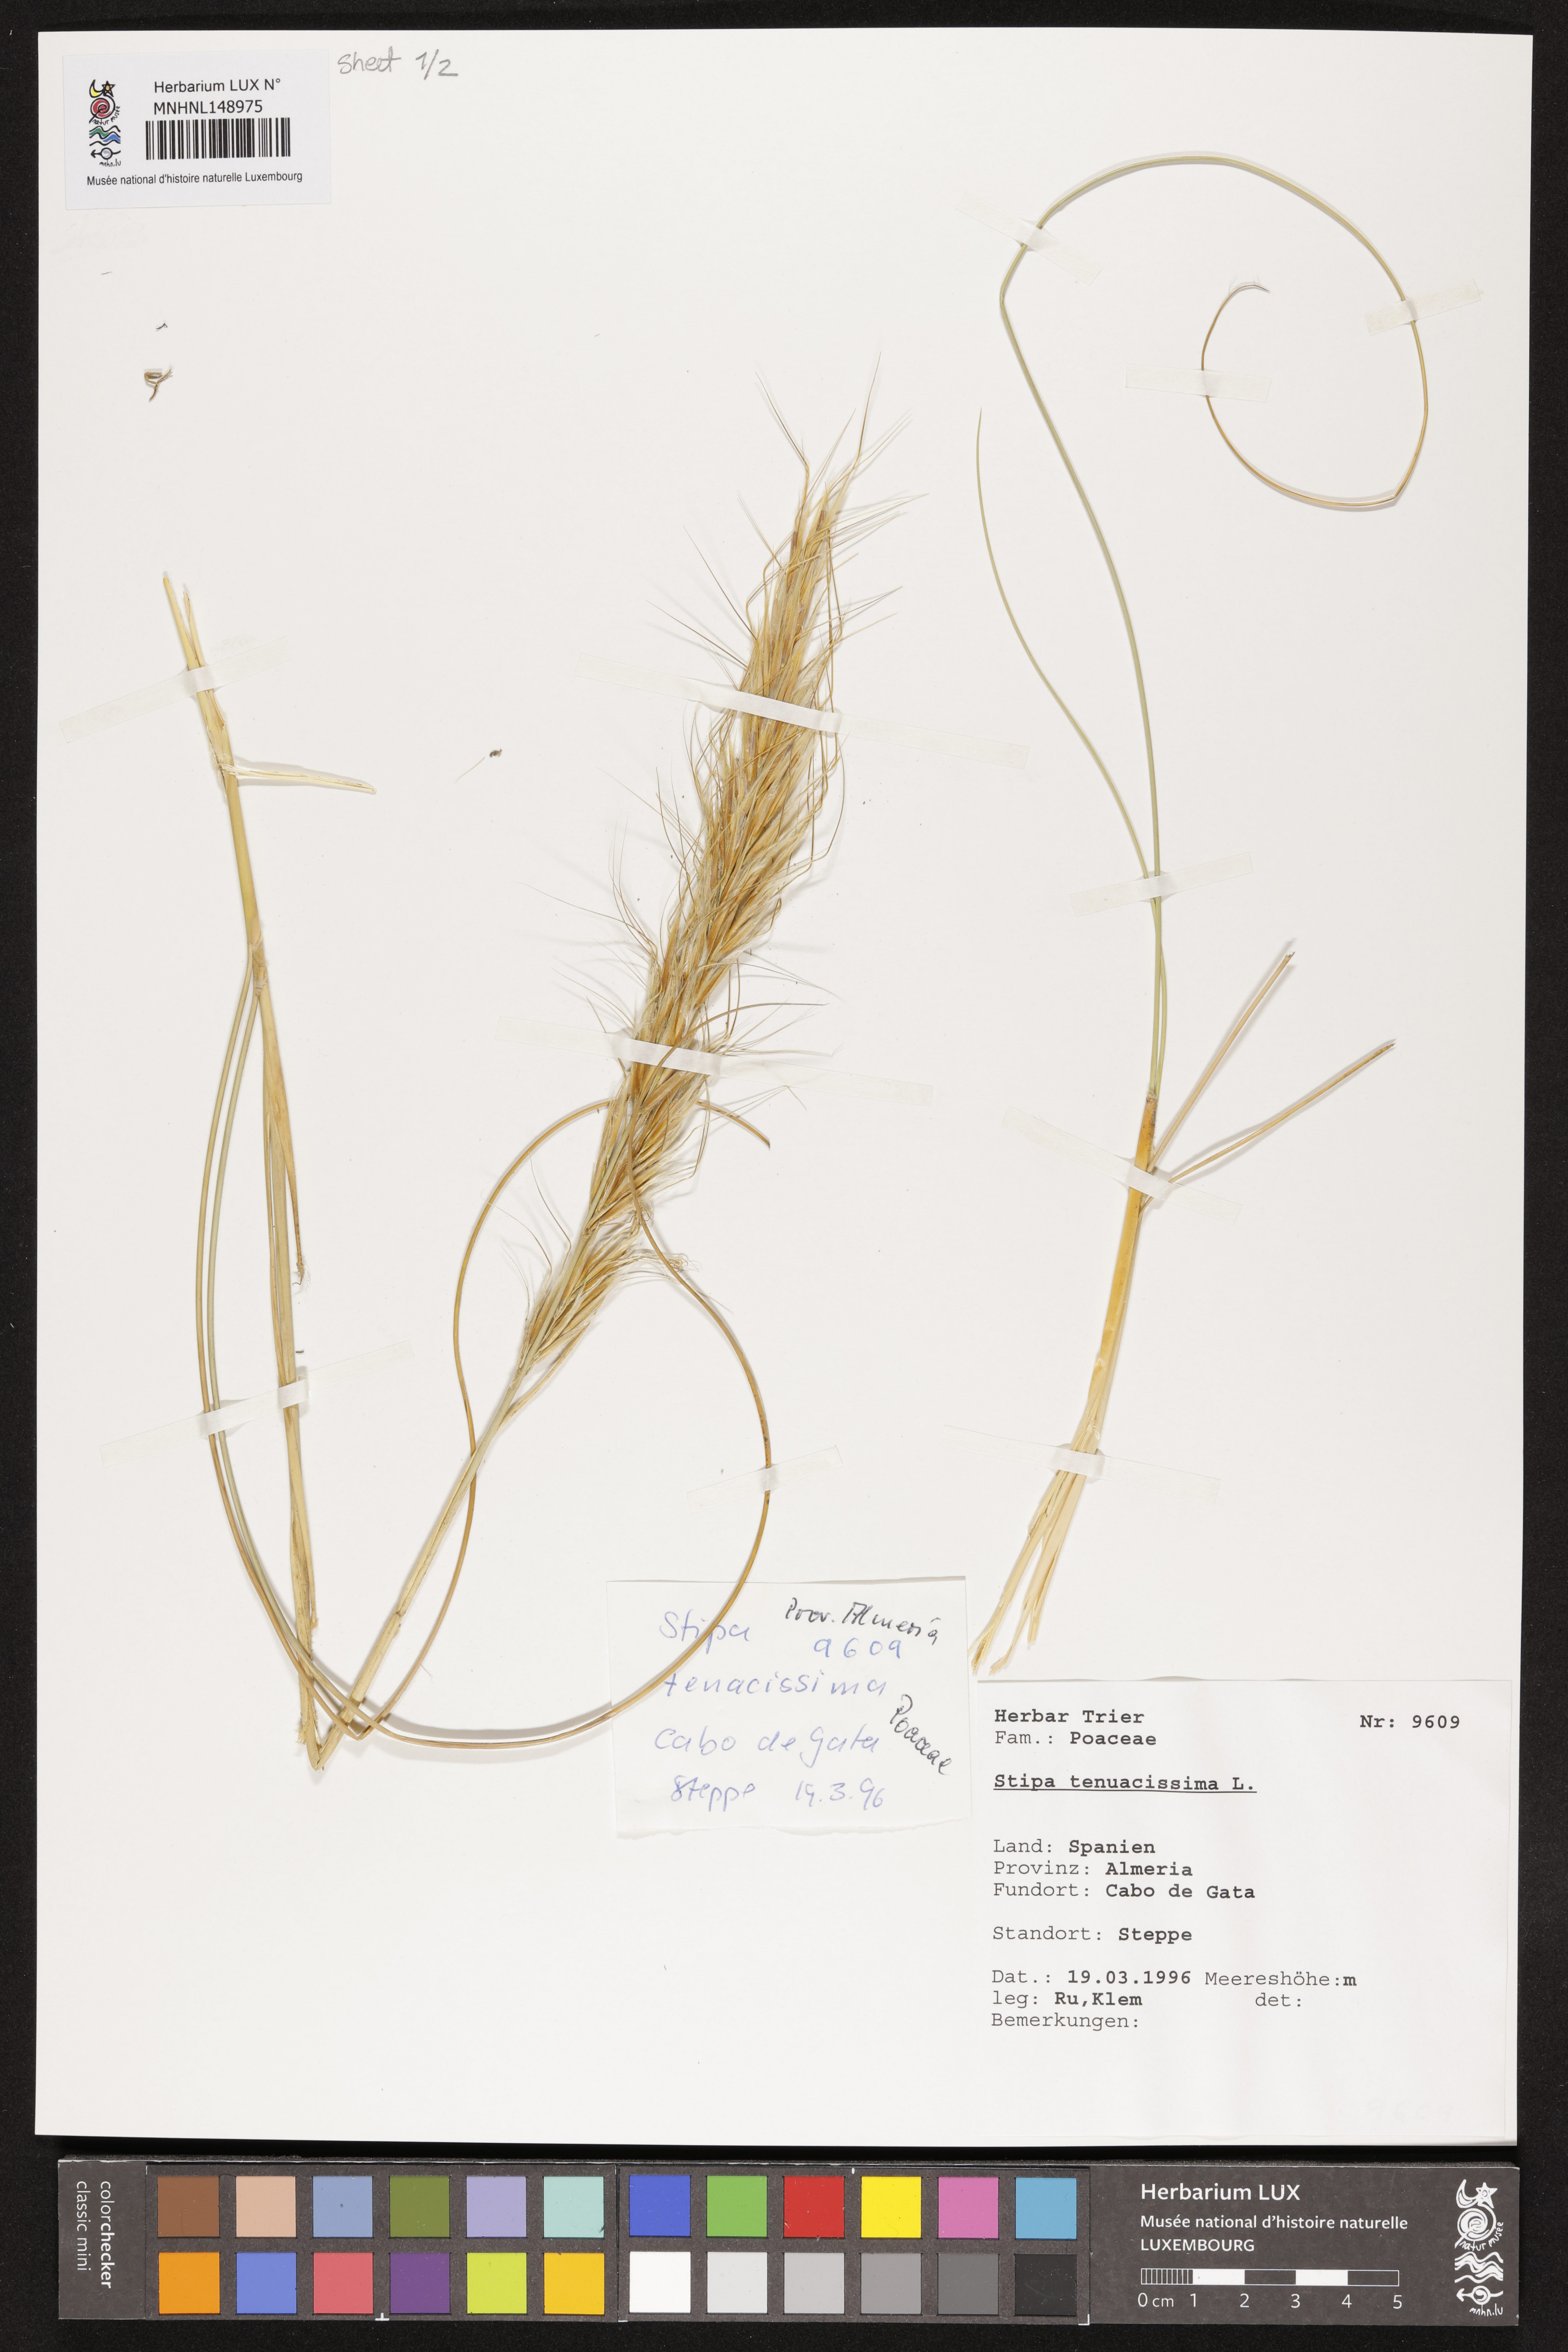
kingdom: Plantae
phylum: Tracheophyta
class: Liliopsida
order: Poales
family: Poaceae
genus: Macrochloa
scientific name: Macrochloa tenacissima
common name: Alfa grass
